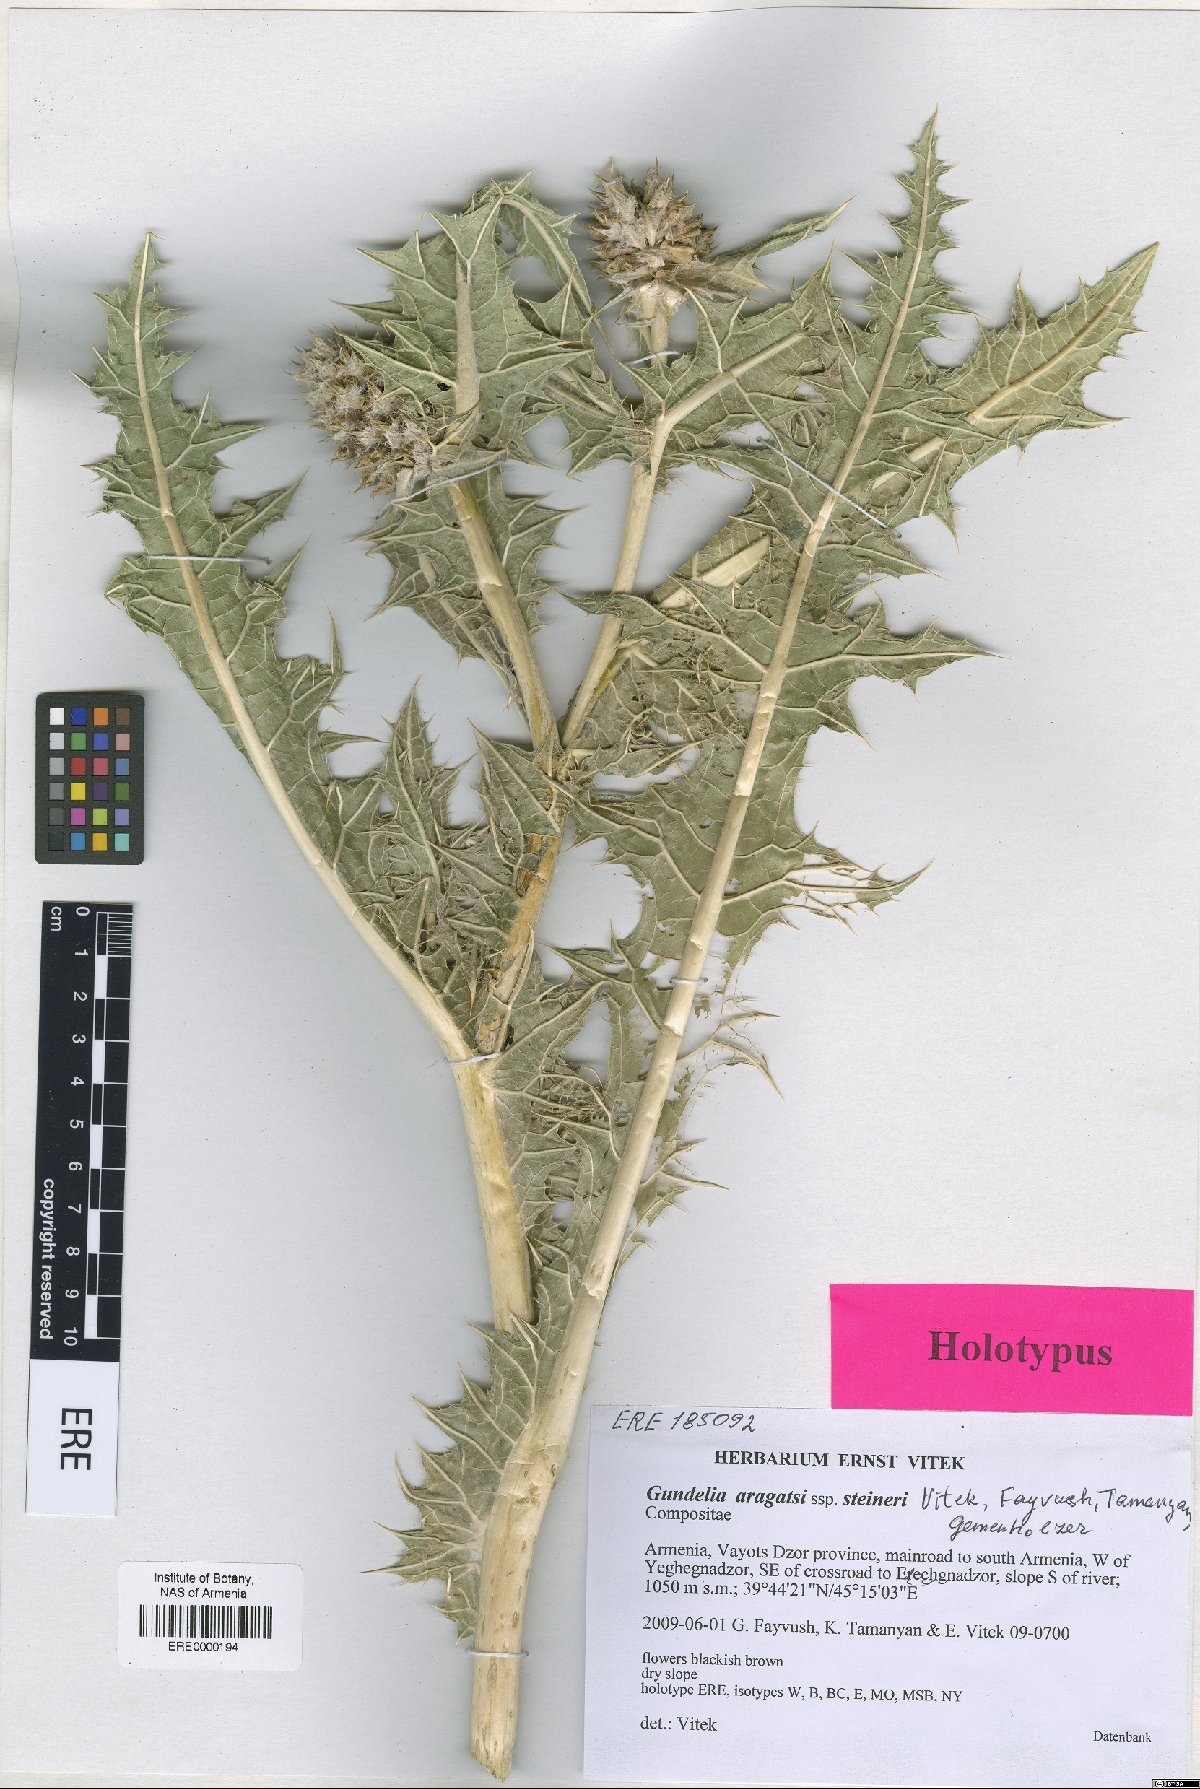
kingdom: Plantae
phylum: Tracheophyta
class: Magnoliopsida
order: Asterales
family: Asteraceae
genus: Gundelia
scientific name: Gundelia aragatsi
